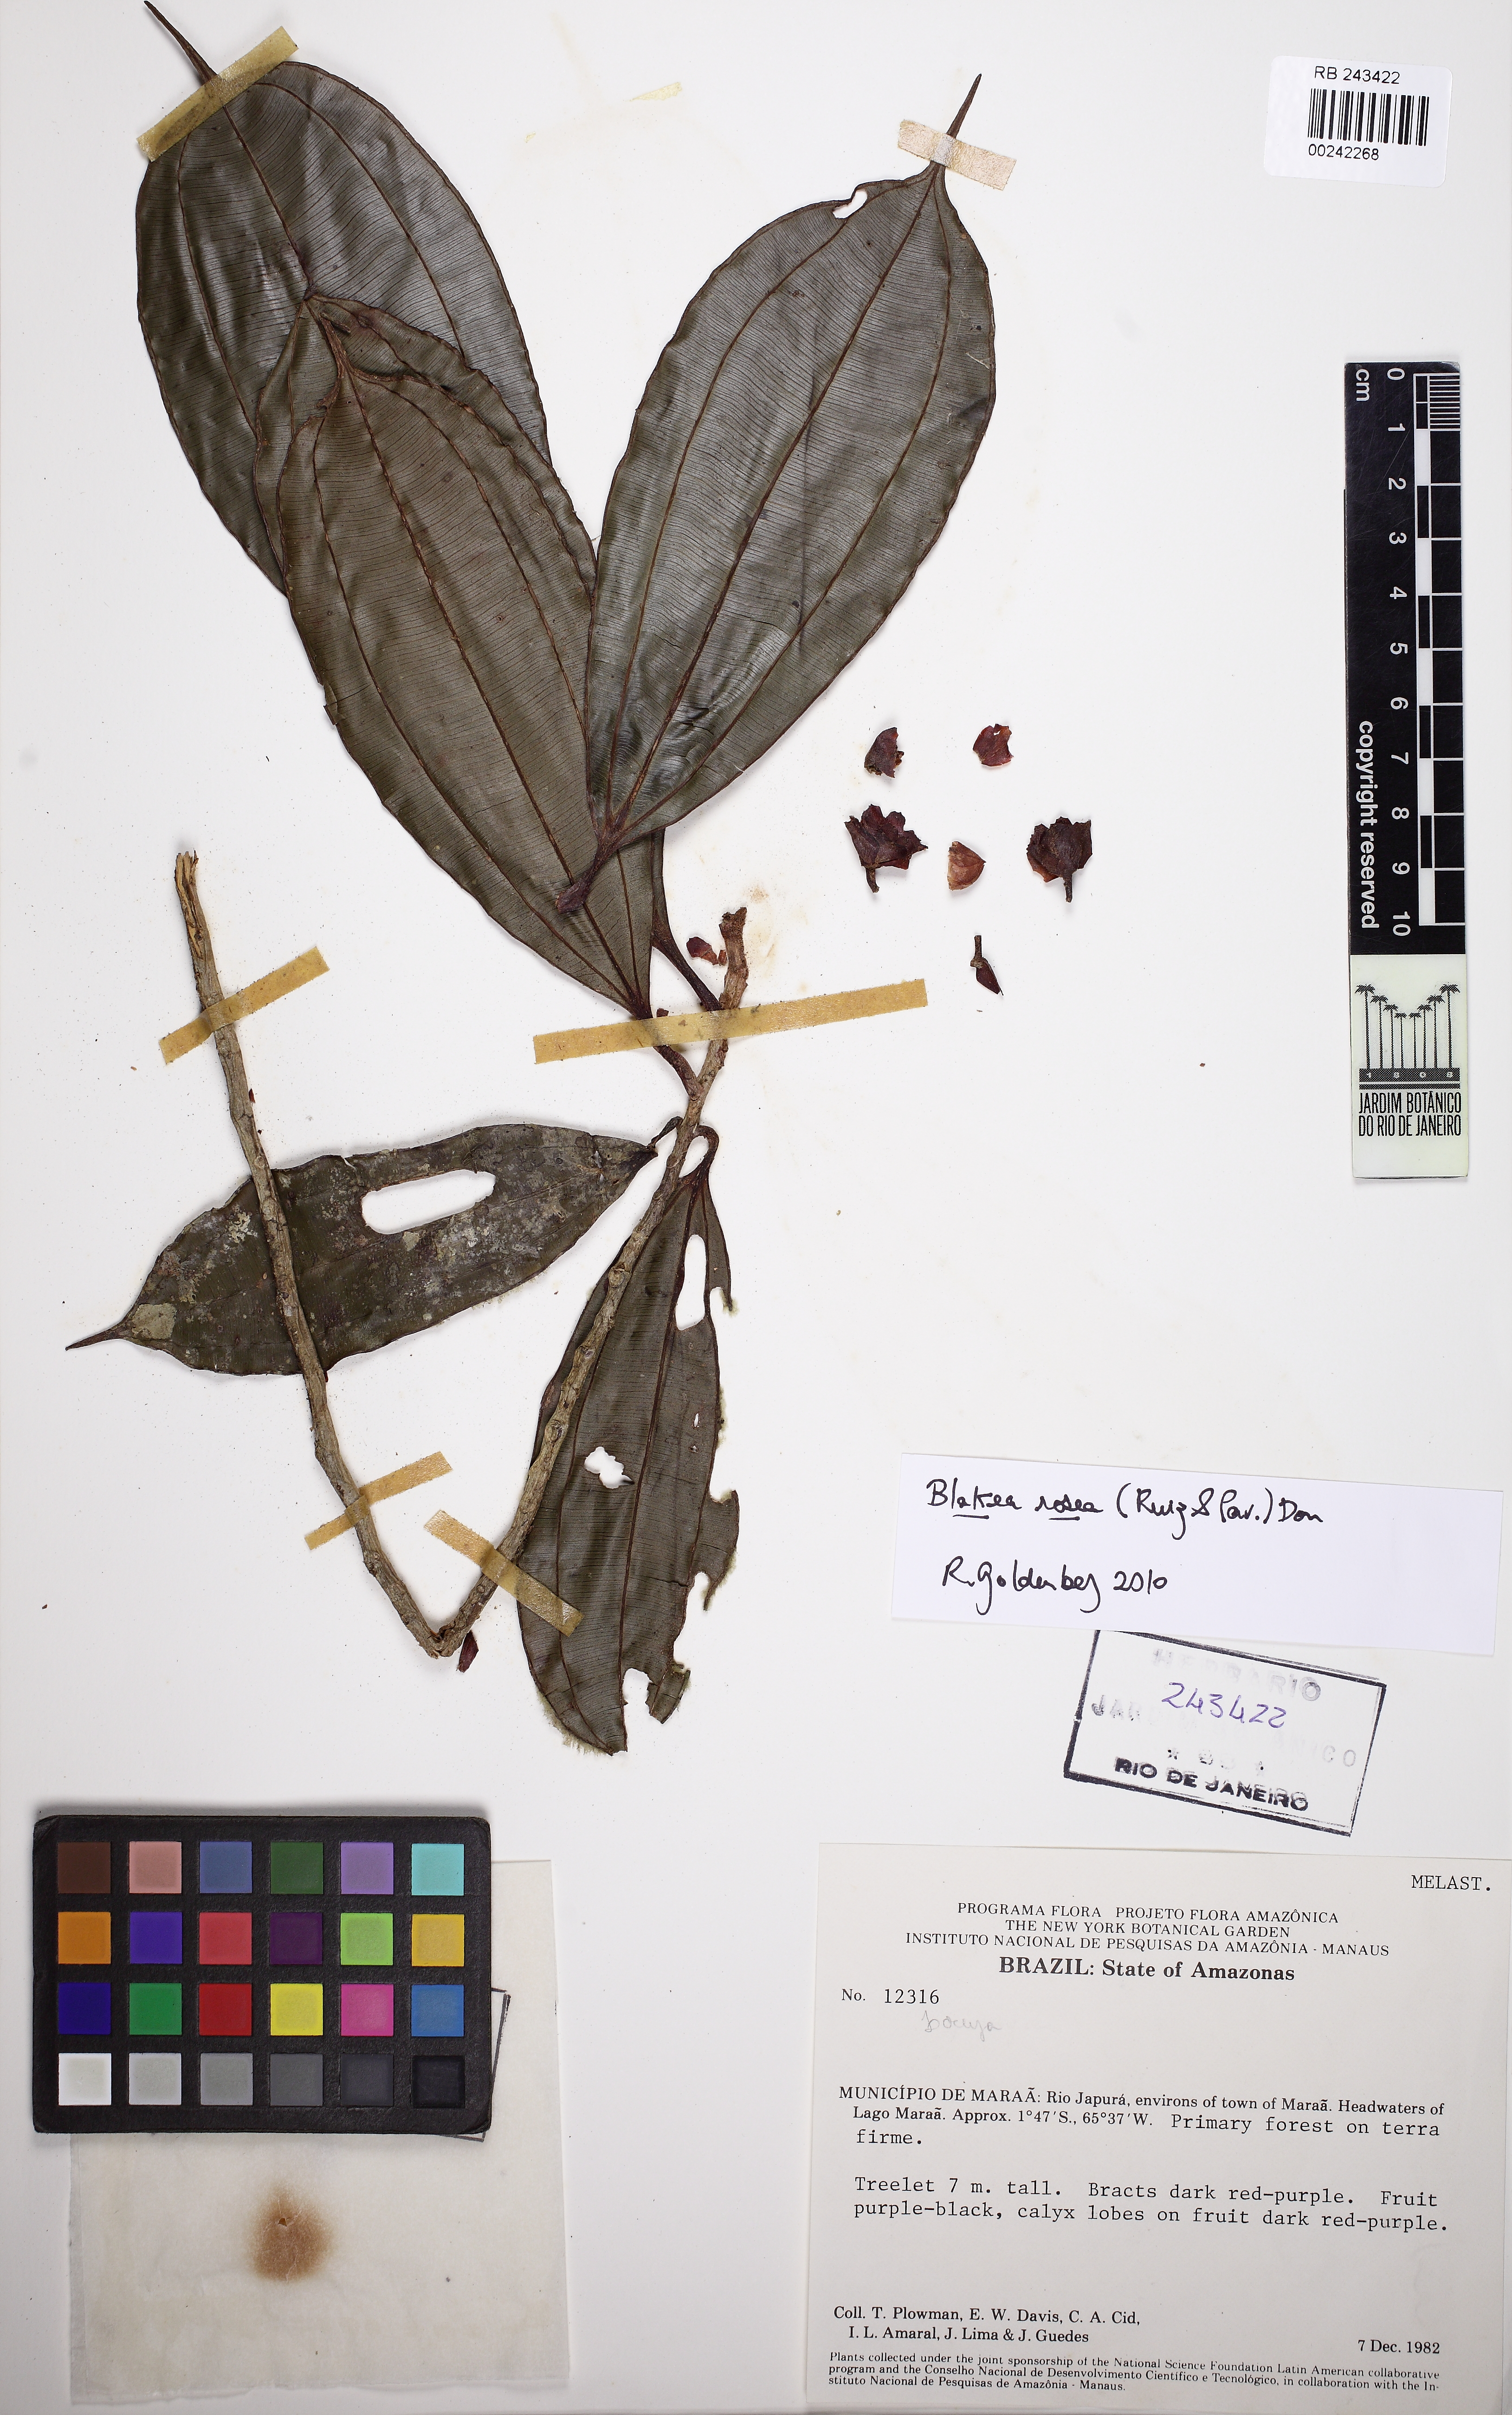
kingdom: Plantae
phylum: Tracheophyta
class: Magnoliopsida
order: Myrtales
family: Melastomataceae
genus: Blakea
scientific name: Blakea rosea
